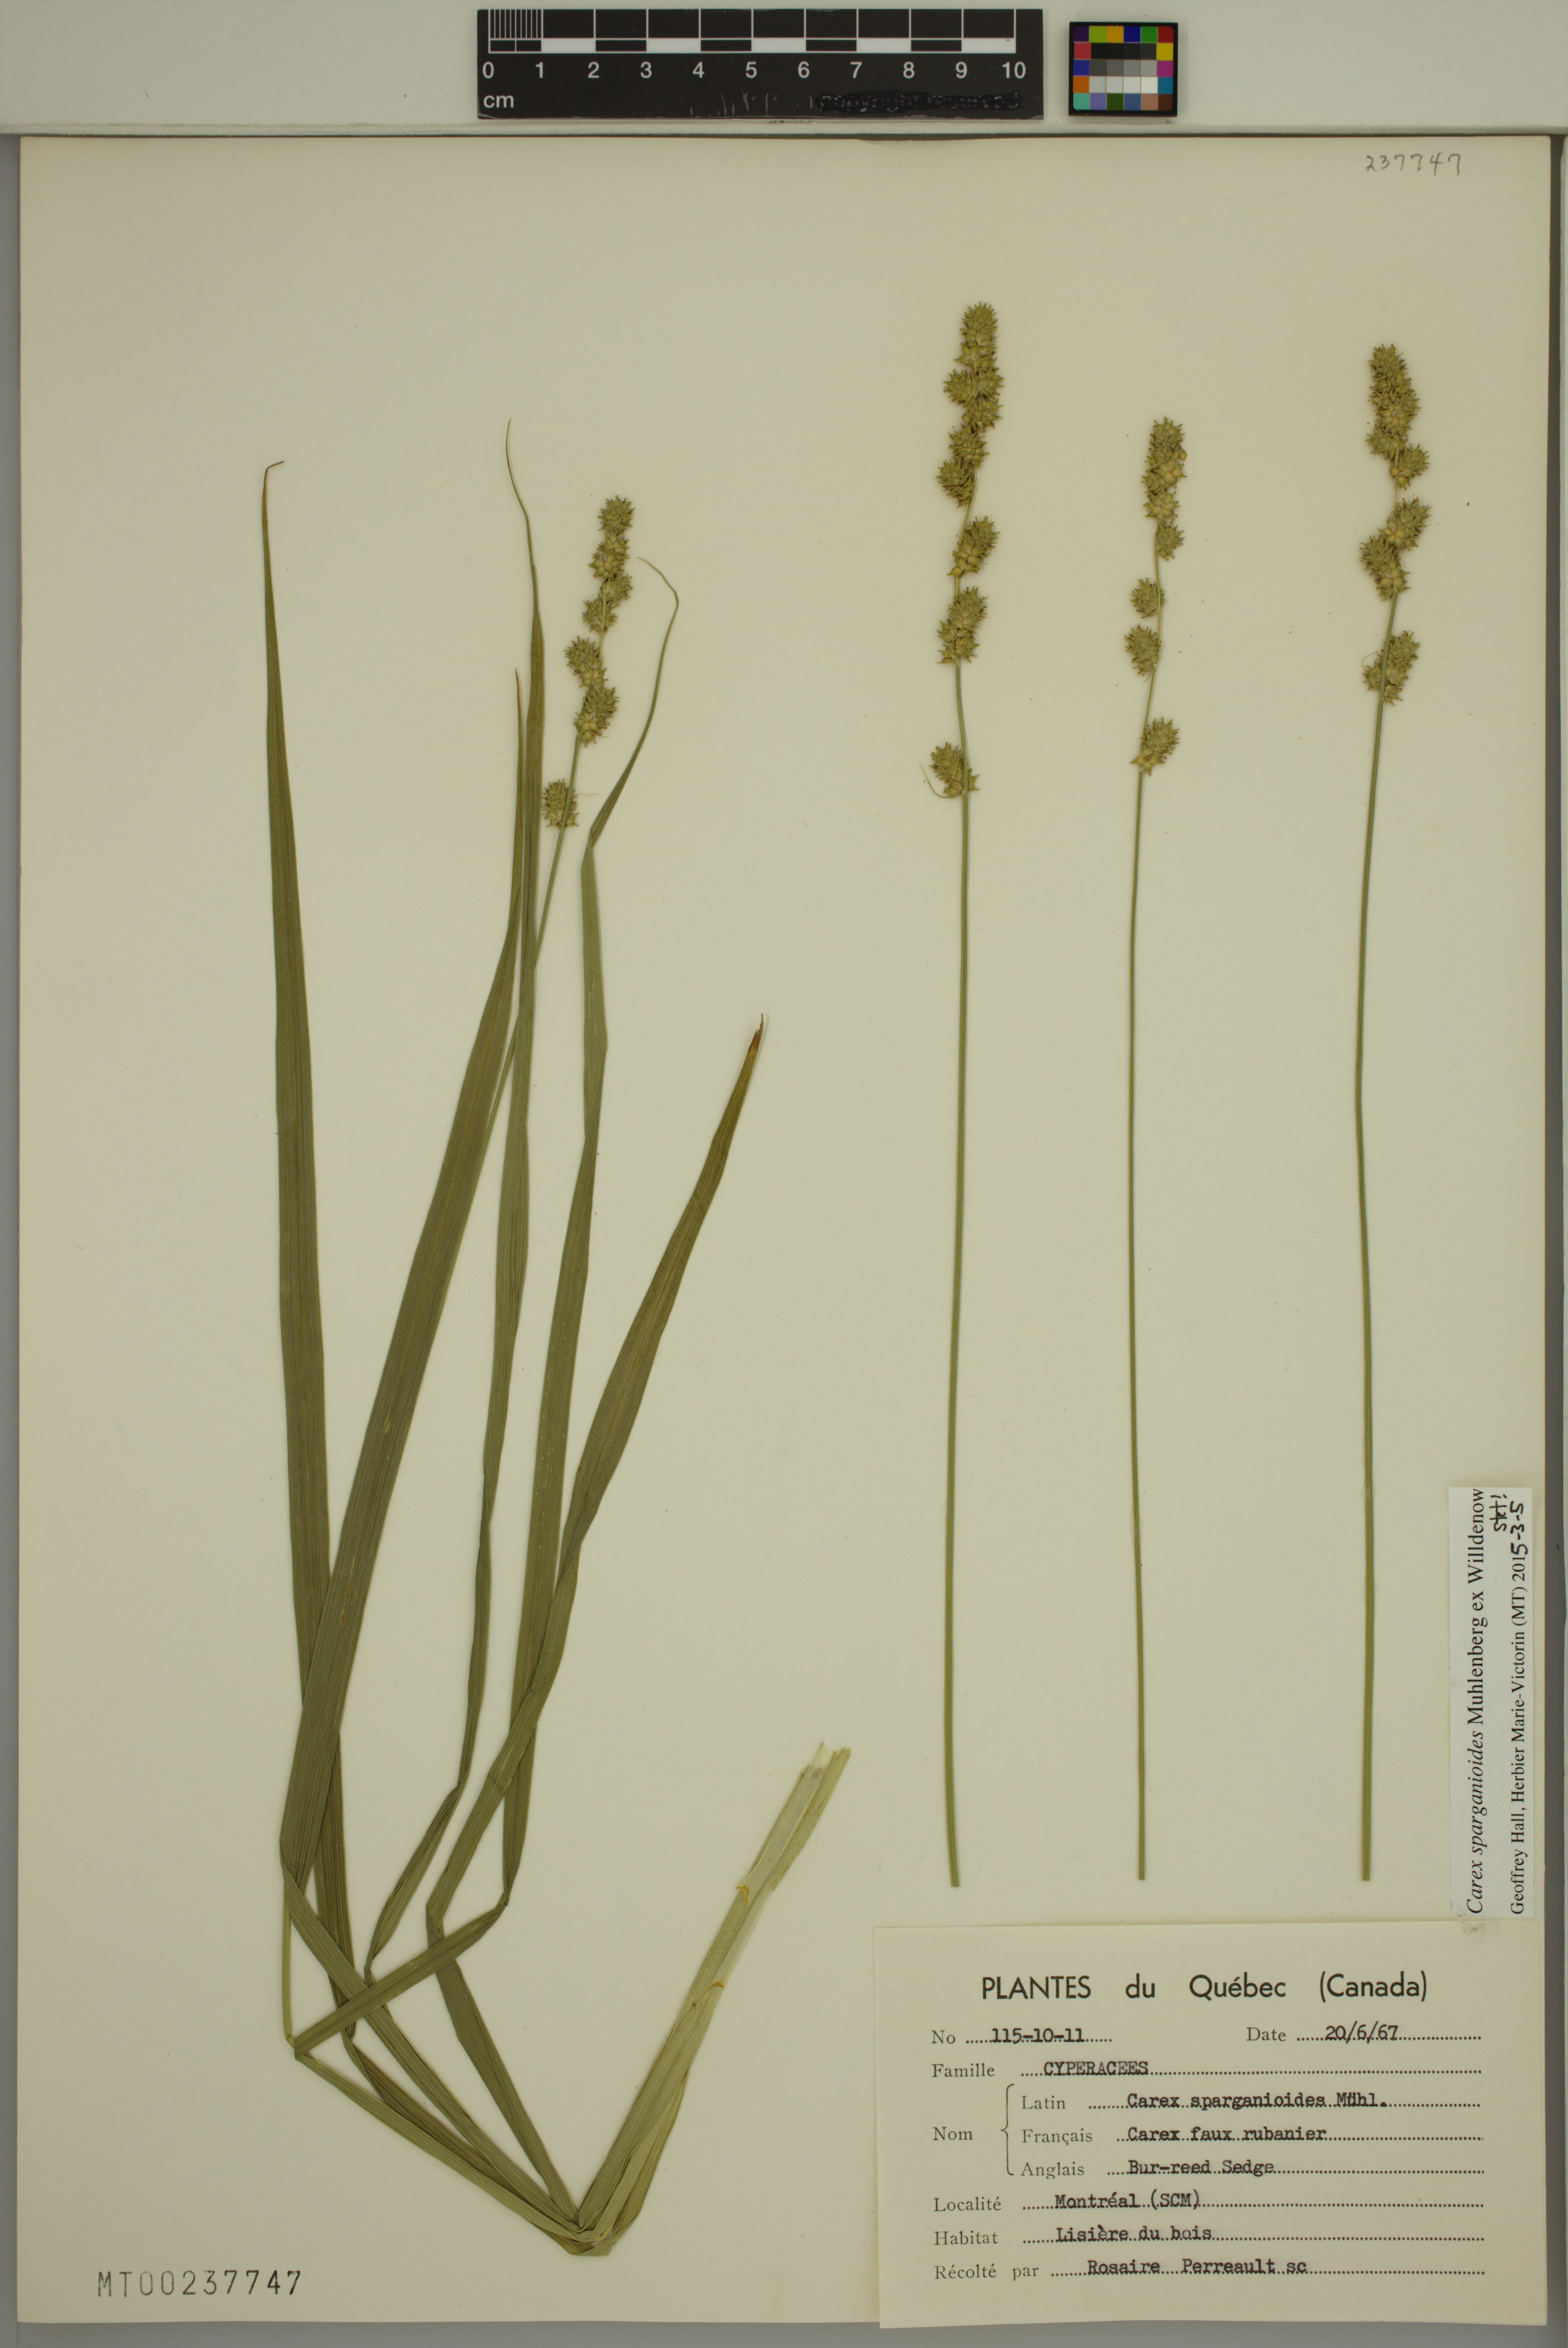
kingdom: Plantae
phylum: Tracheophyta
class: Liliopsida
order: Poales
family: Cyperaceae
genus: Carex
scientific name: Carex sparganioides
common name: Burreed sedge
